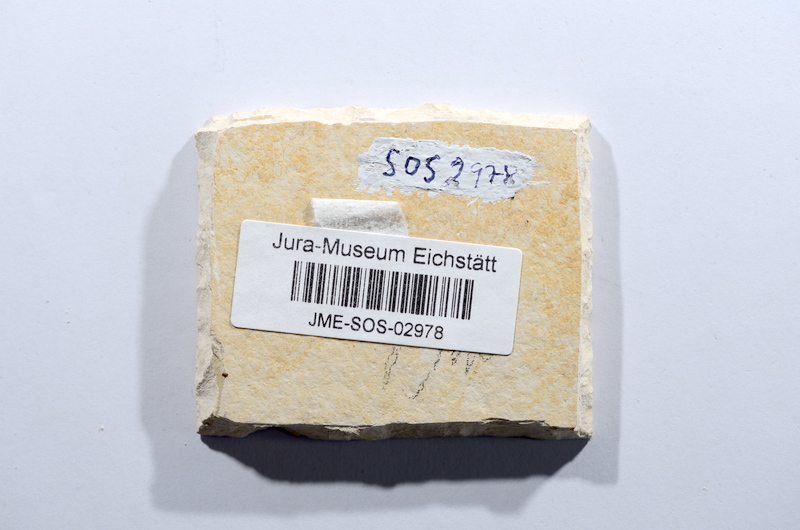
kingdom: Animalia
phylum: Chordata
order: Salmoniformes
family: Orthogonikleithridae
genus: Leptolepides
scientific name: Leptolepides sprattiformis
